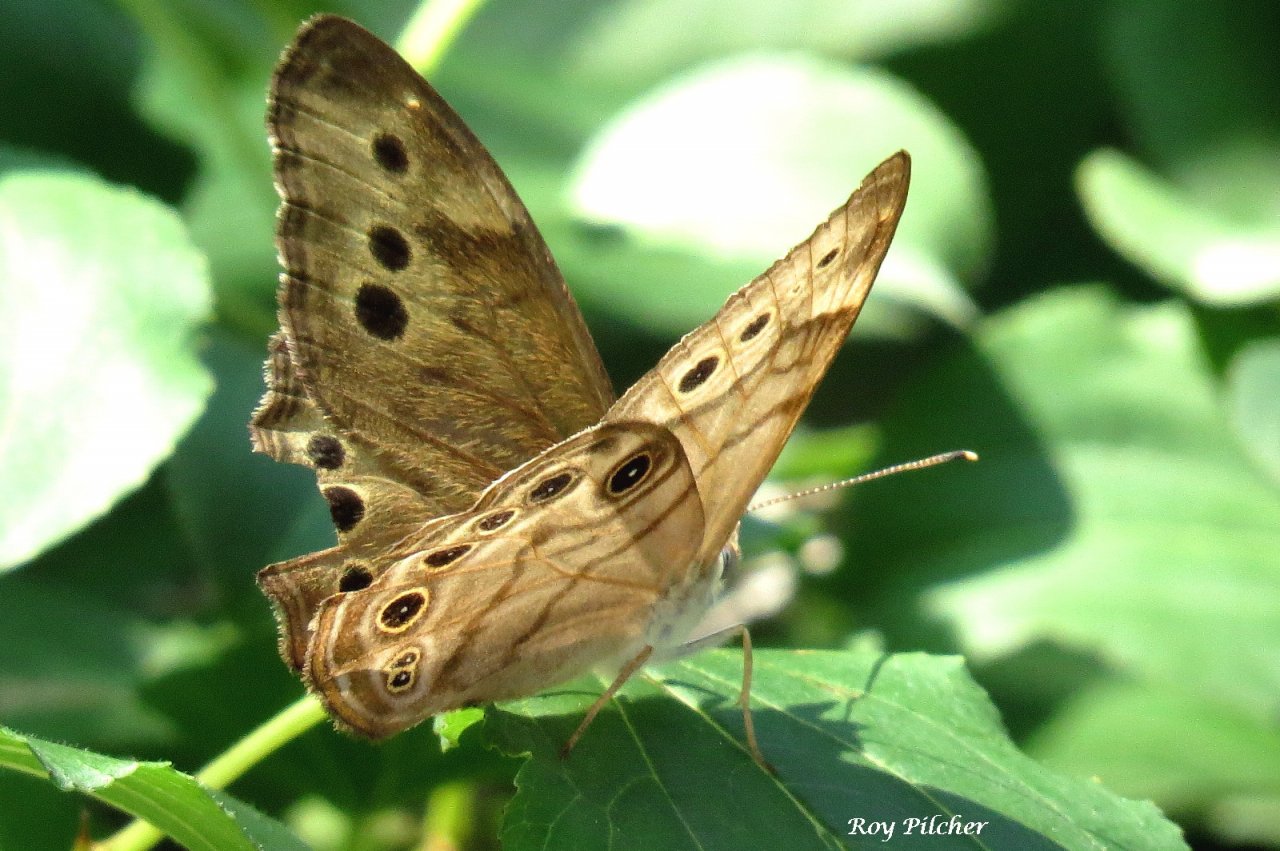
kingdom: Animalia
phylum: Arthropoda
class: Insecta
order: Lepidoptera
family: Nymphalidae
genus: Lethe
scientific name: Lethe anthedon
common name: Northern Pearly-Eye
